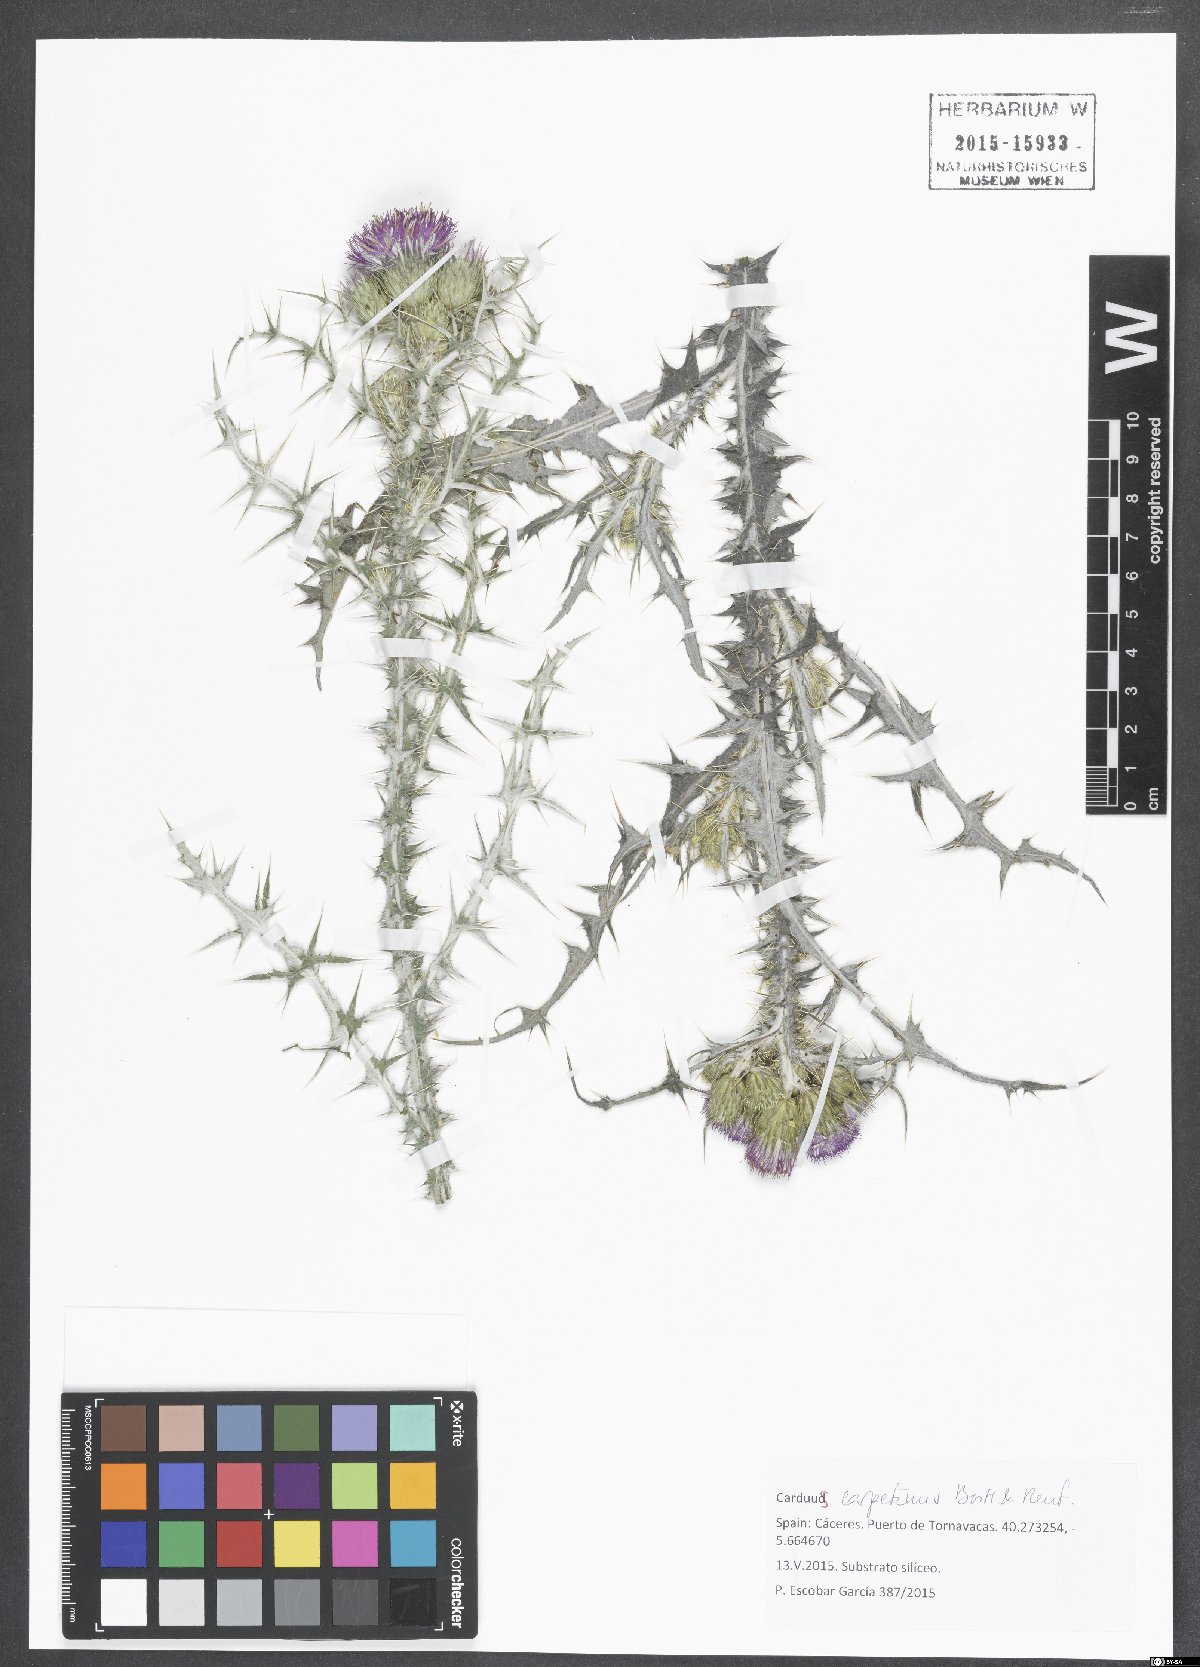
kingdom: Plantae
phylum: Tracheophyta
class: Magnoliopsida
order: Asterales
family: Asteraceae
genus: Carduus
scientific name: Carduus carpetanus
